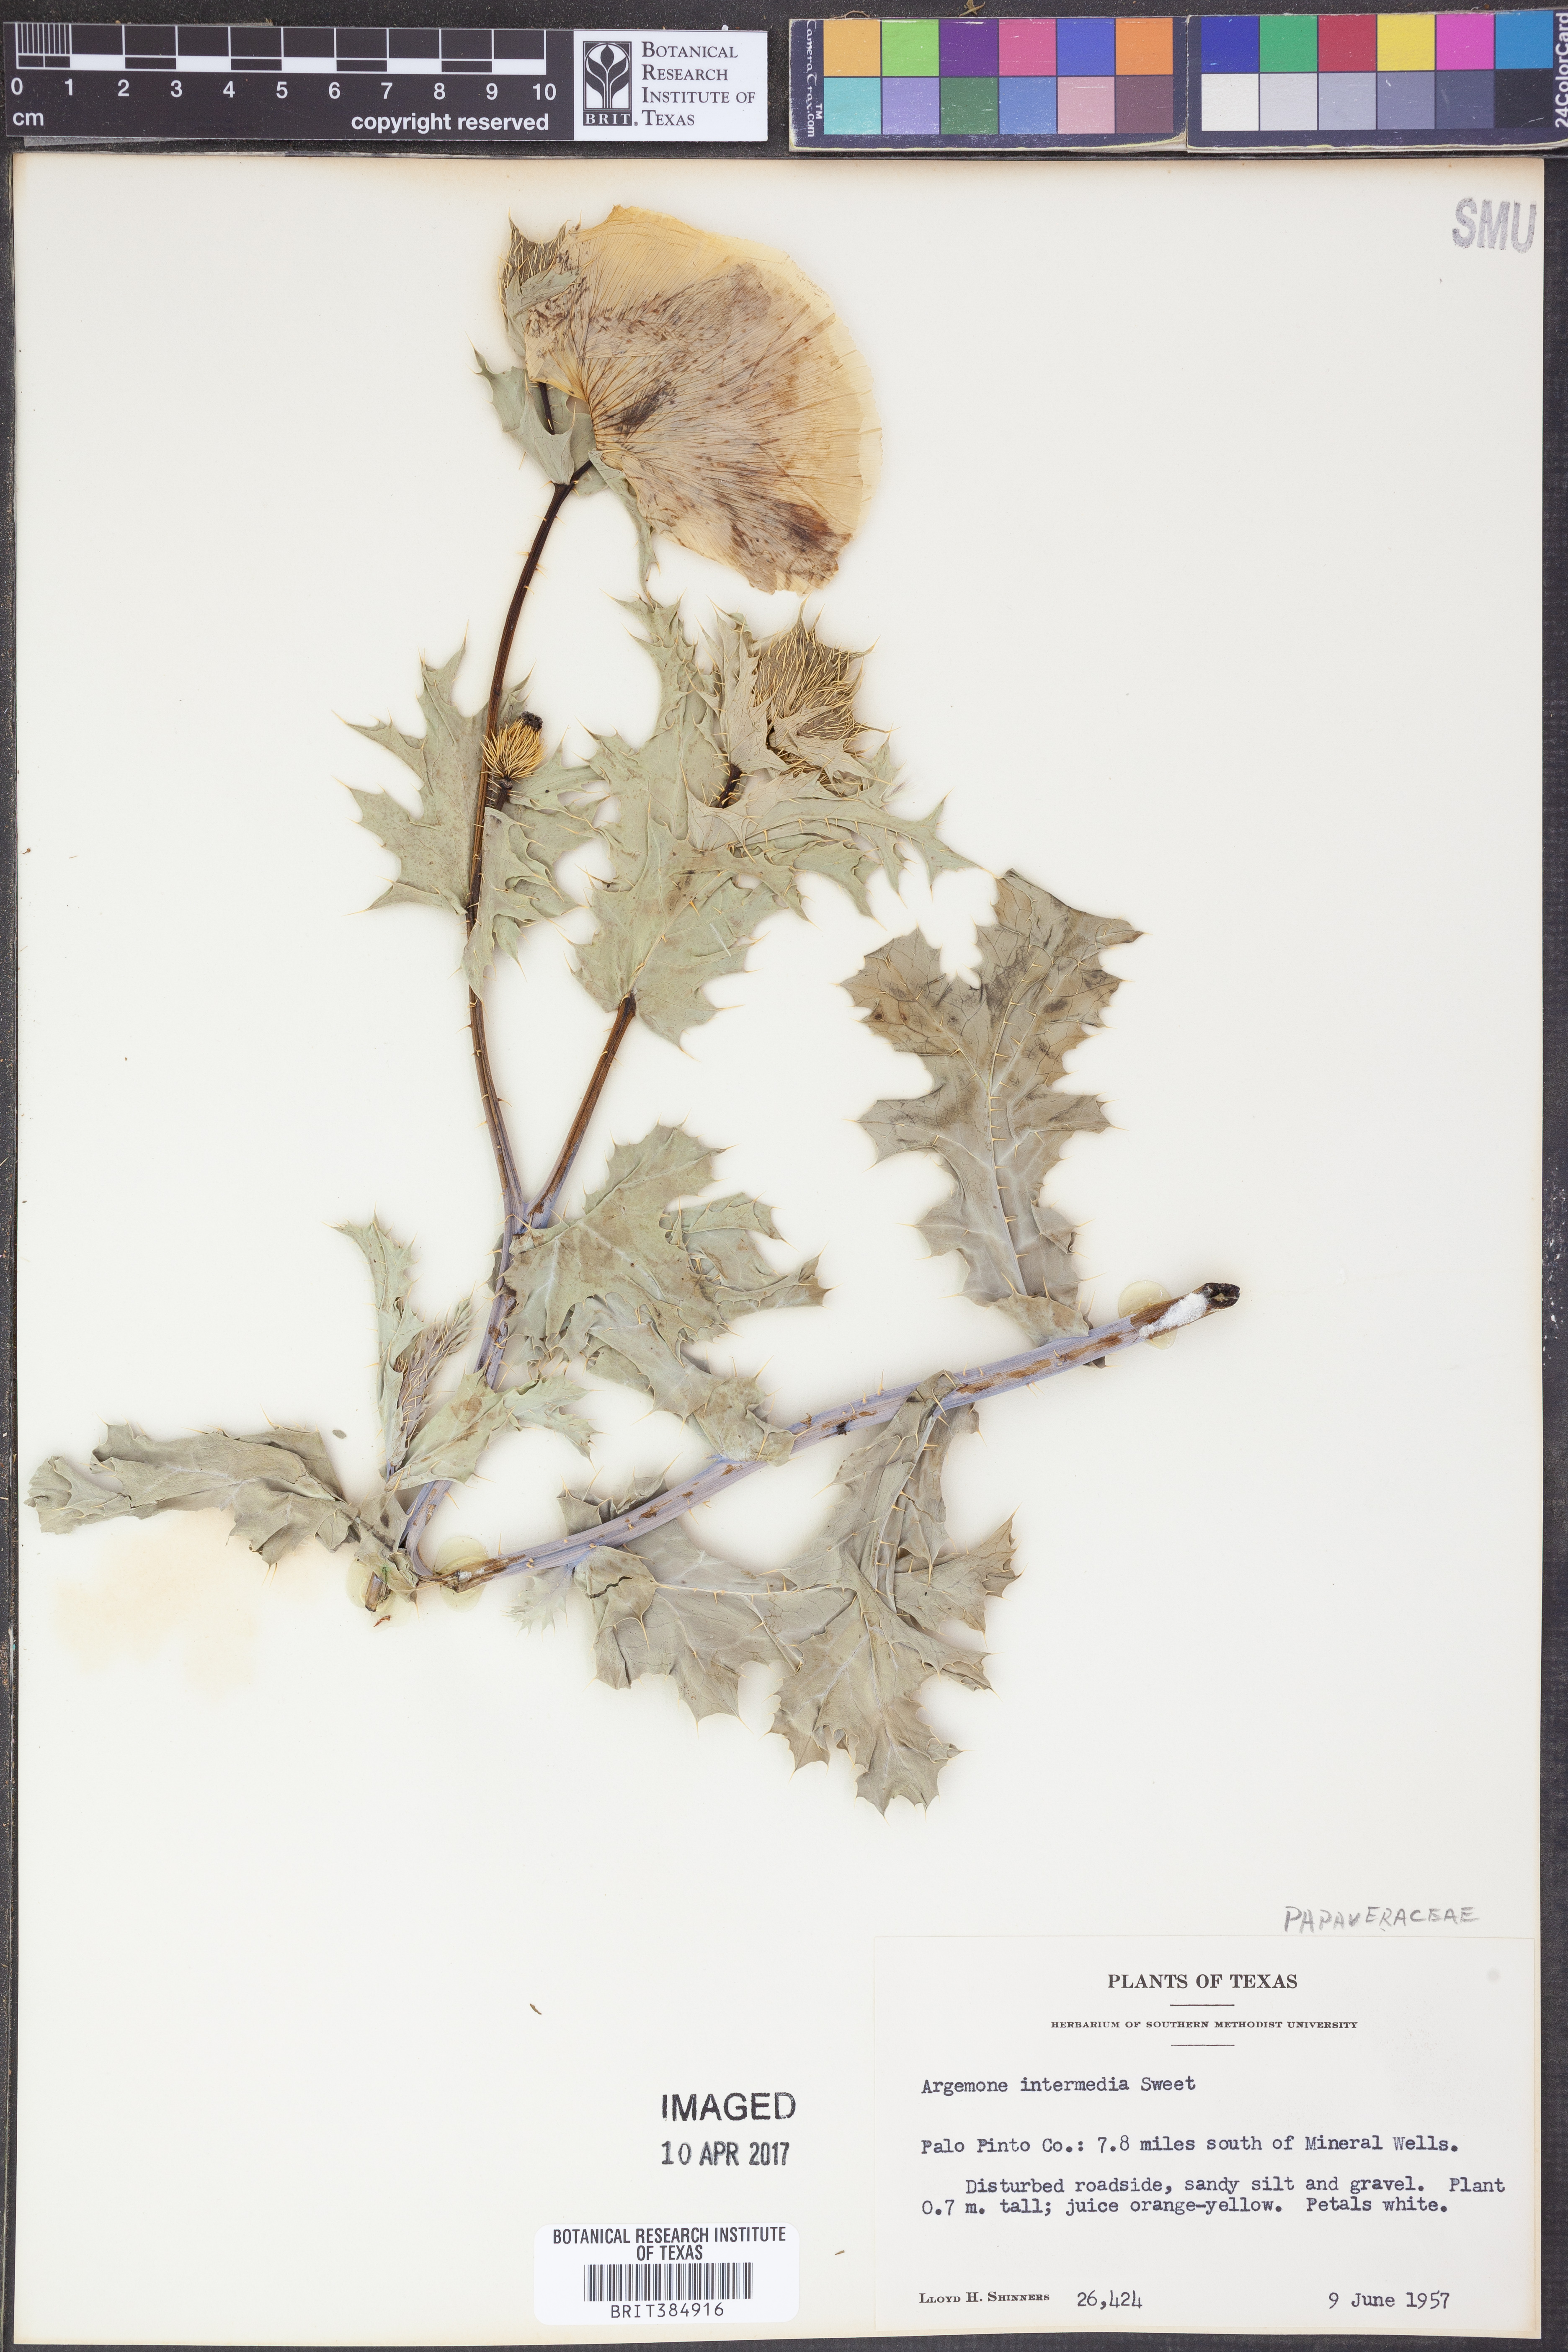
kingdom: Plantae
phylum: Tracheophyta
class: Magnoliopsida
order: Ranunculales
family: Papaveraceae
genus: Argemone
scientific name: Argemone intermedia
